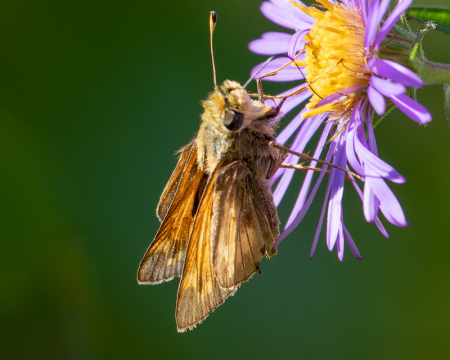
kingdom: Animalia
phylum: Arthropoda
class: Insecta
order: Lepidoptera
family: Hesperiidae
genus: Atalopedes
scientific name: Atalopedes campestris
